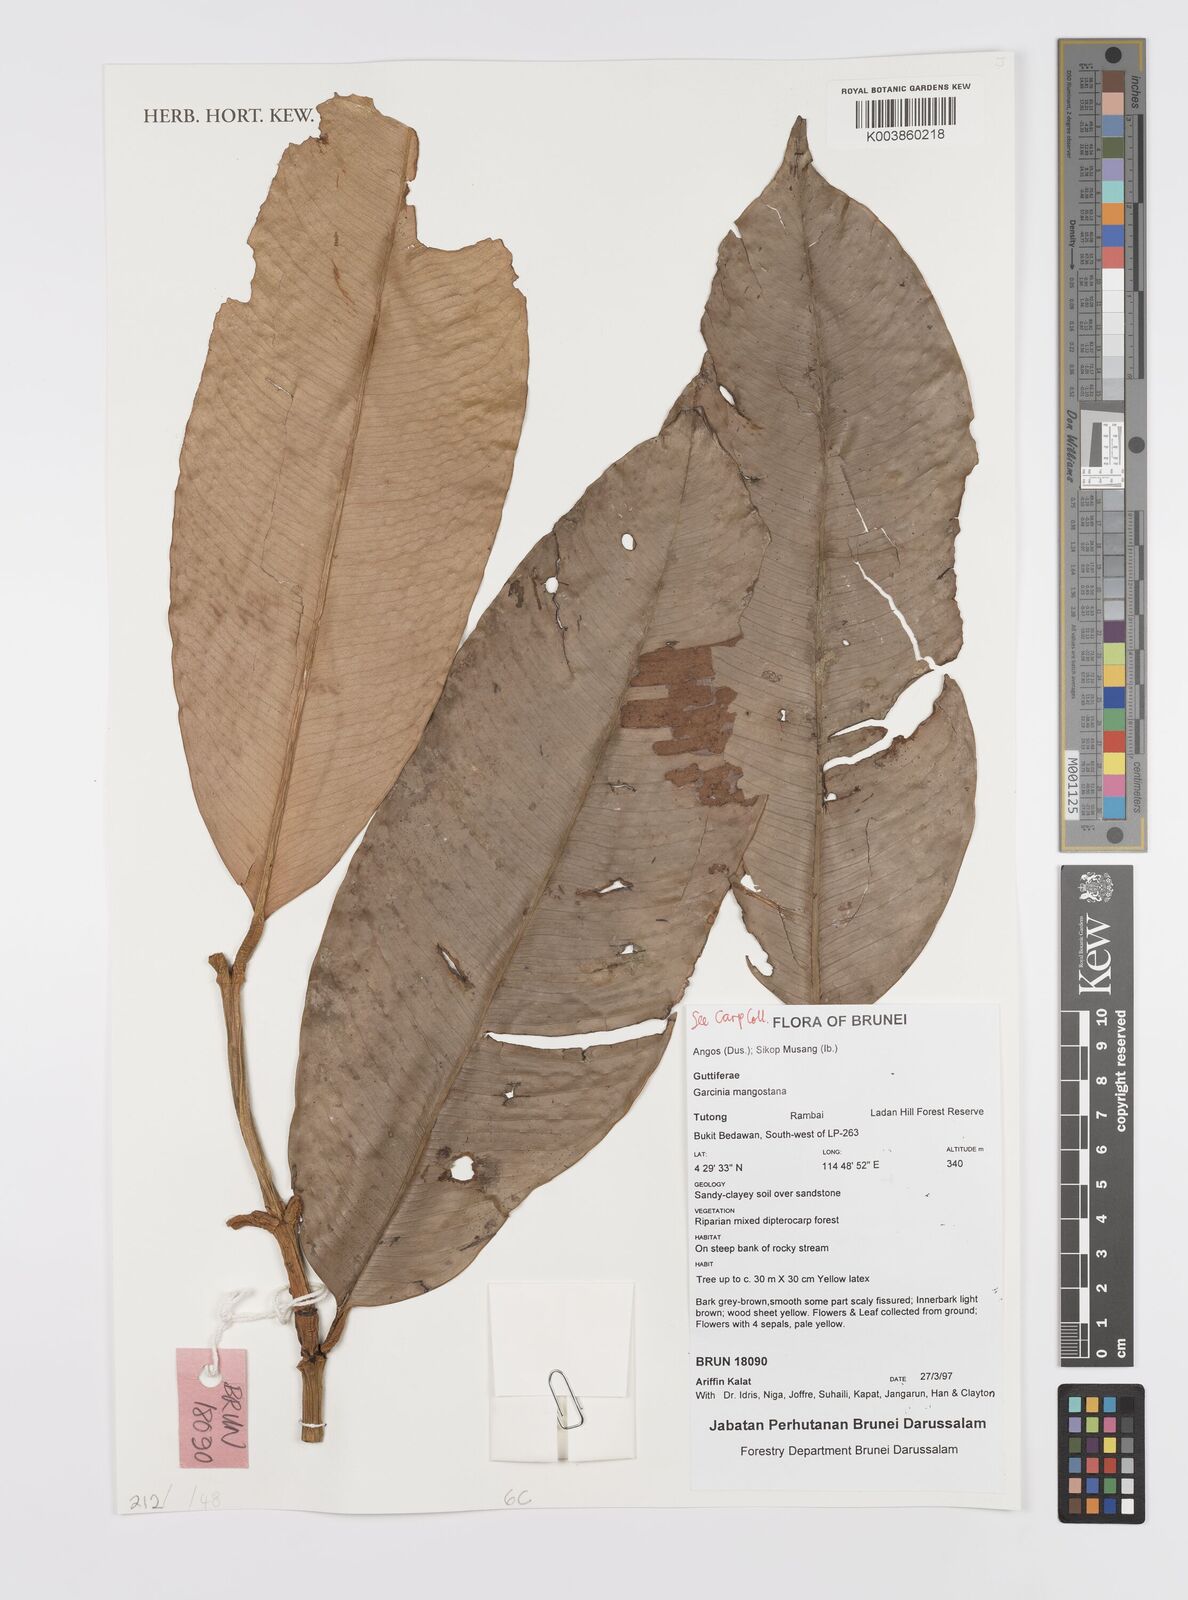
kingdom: Plantae
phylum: Tracheophyta
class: Magnoliopsida
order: Malpighiales
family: Clusiaceae
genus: Garcinia
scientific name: Garcinia mangostana
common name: Mangosteen
